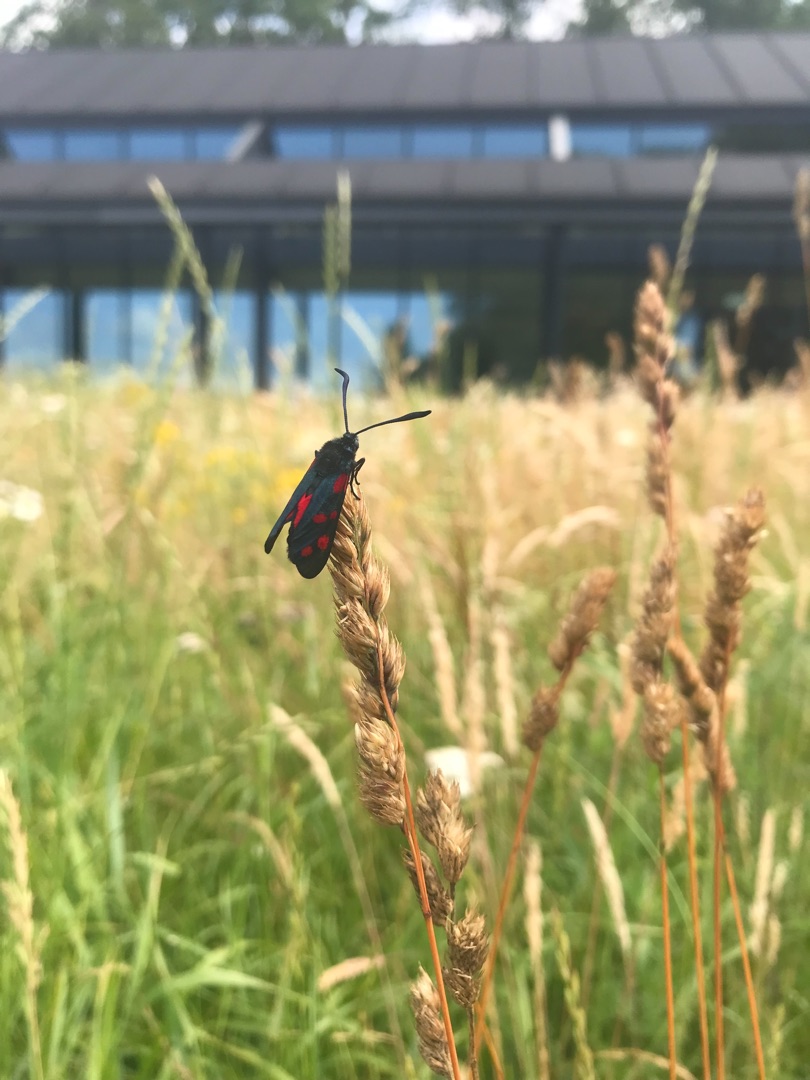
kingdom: Animalia
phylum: Arthropoda
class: Insecta
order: Lepidoptera
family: Zygaenidae
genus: Zygaena
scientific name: Zygaena filipendulae
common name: Seksplettet køllesværmer
